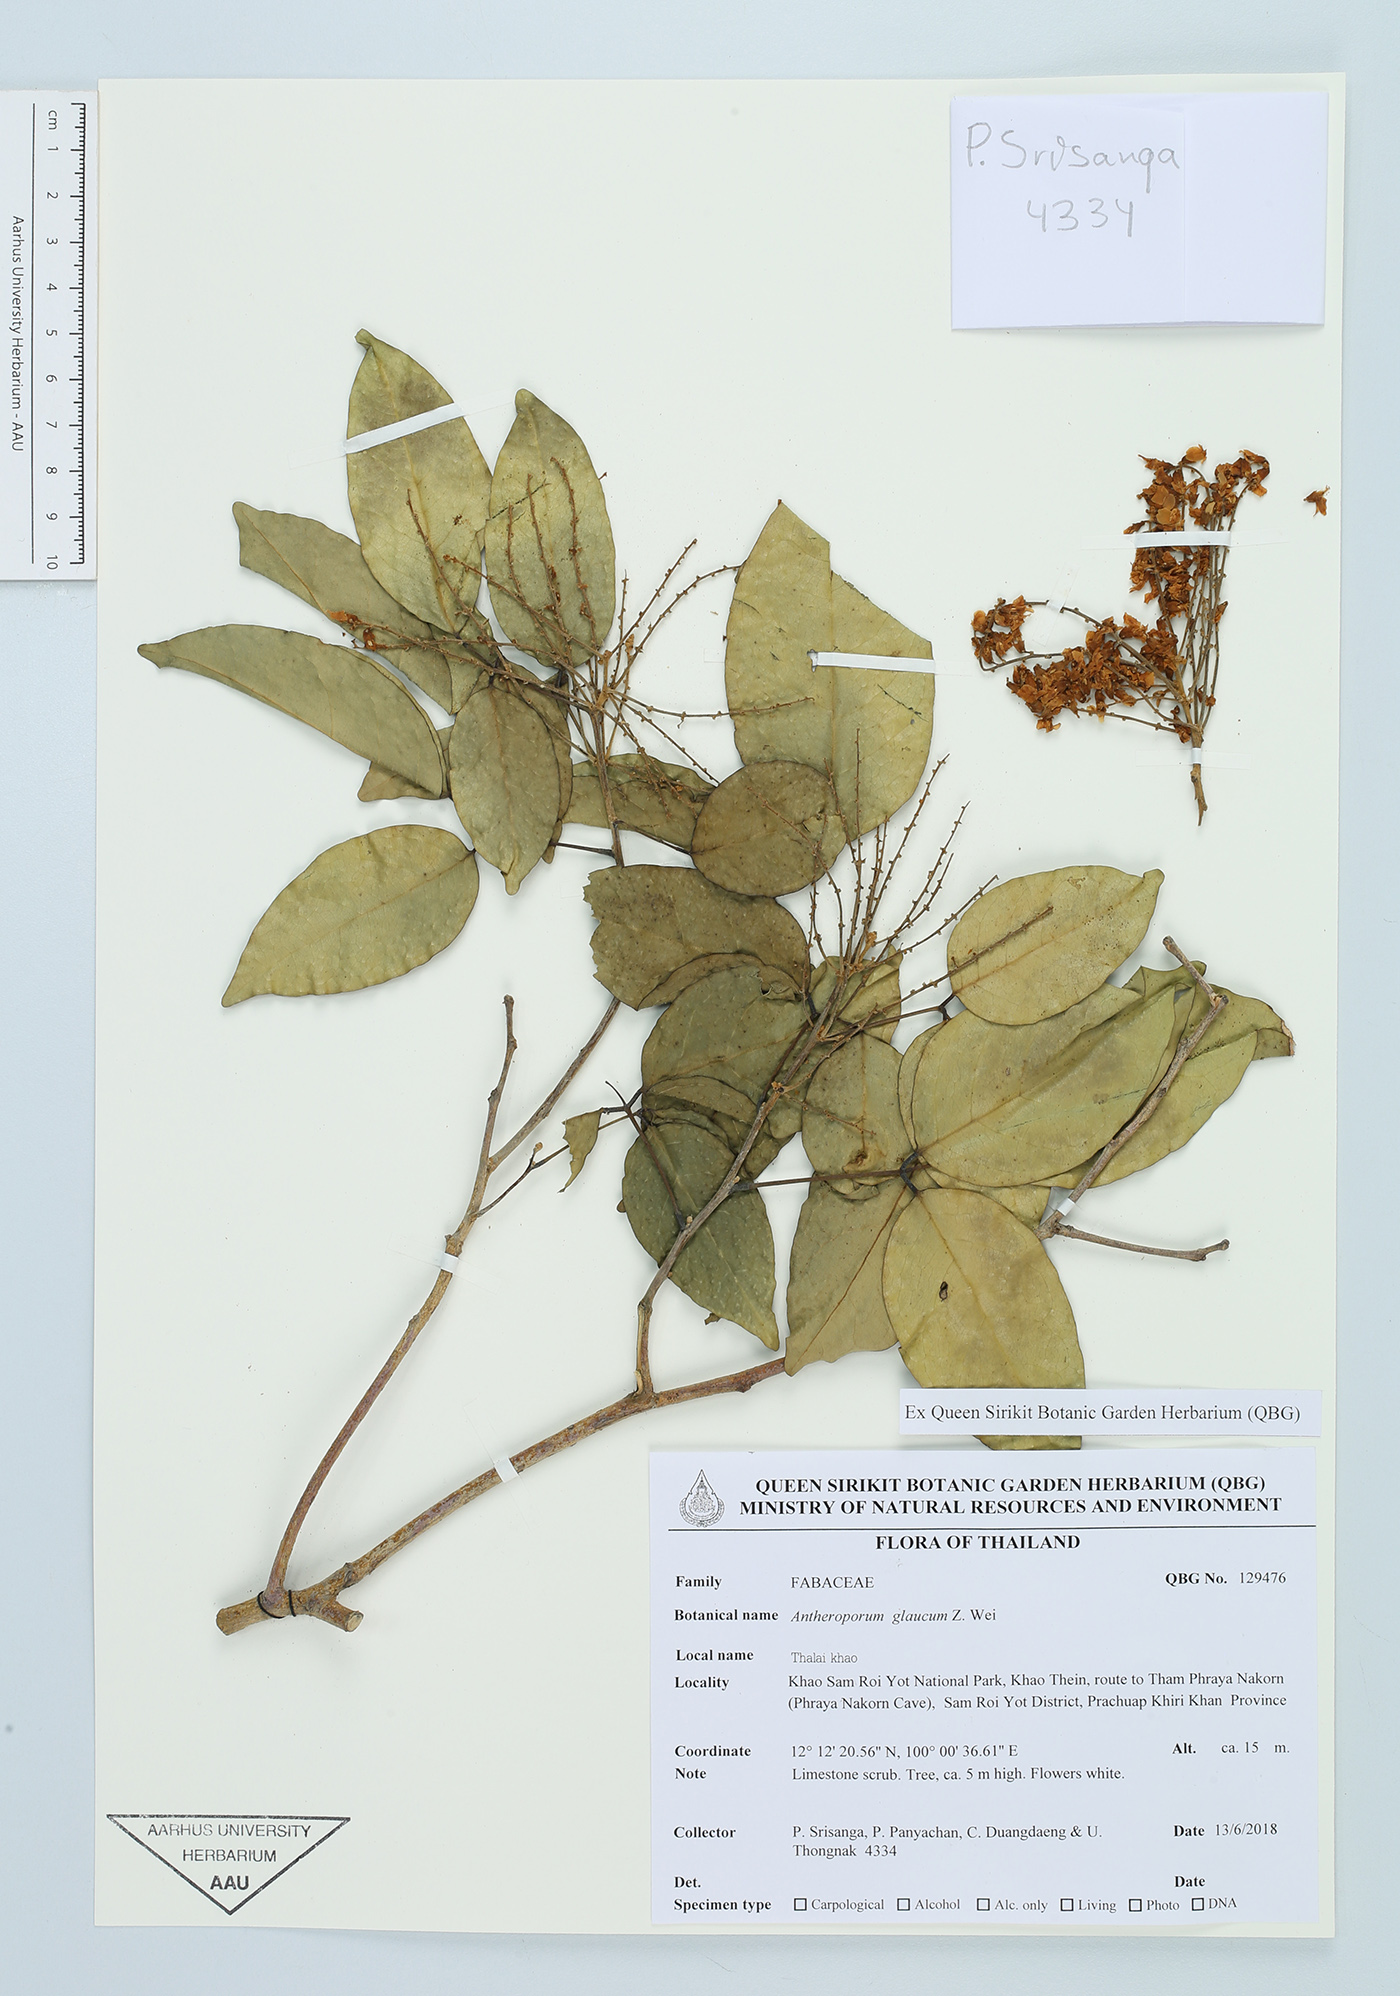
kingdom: Plantae
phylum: Tracheophyta
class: Magnoliopsida
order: Fabales
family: Fabaceae
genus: Antheroporum
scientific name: Antheroporum harmandii
